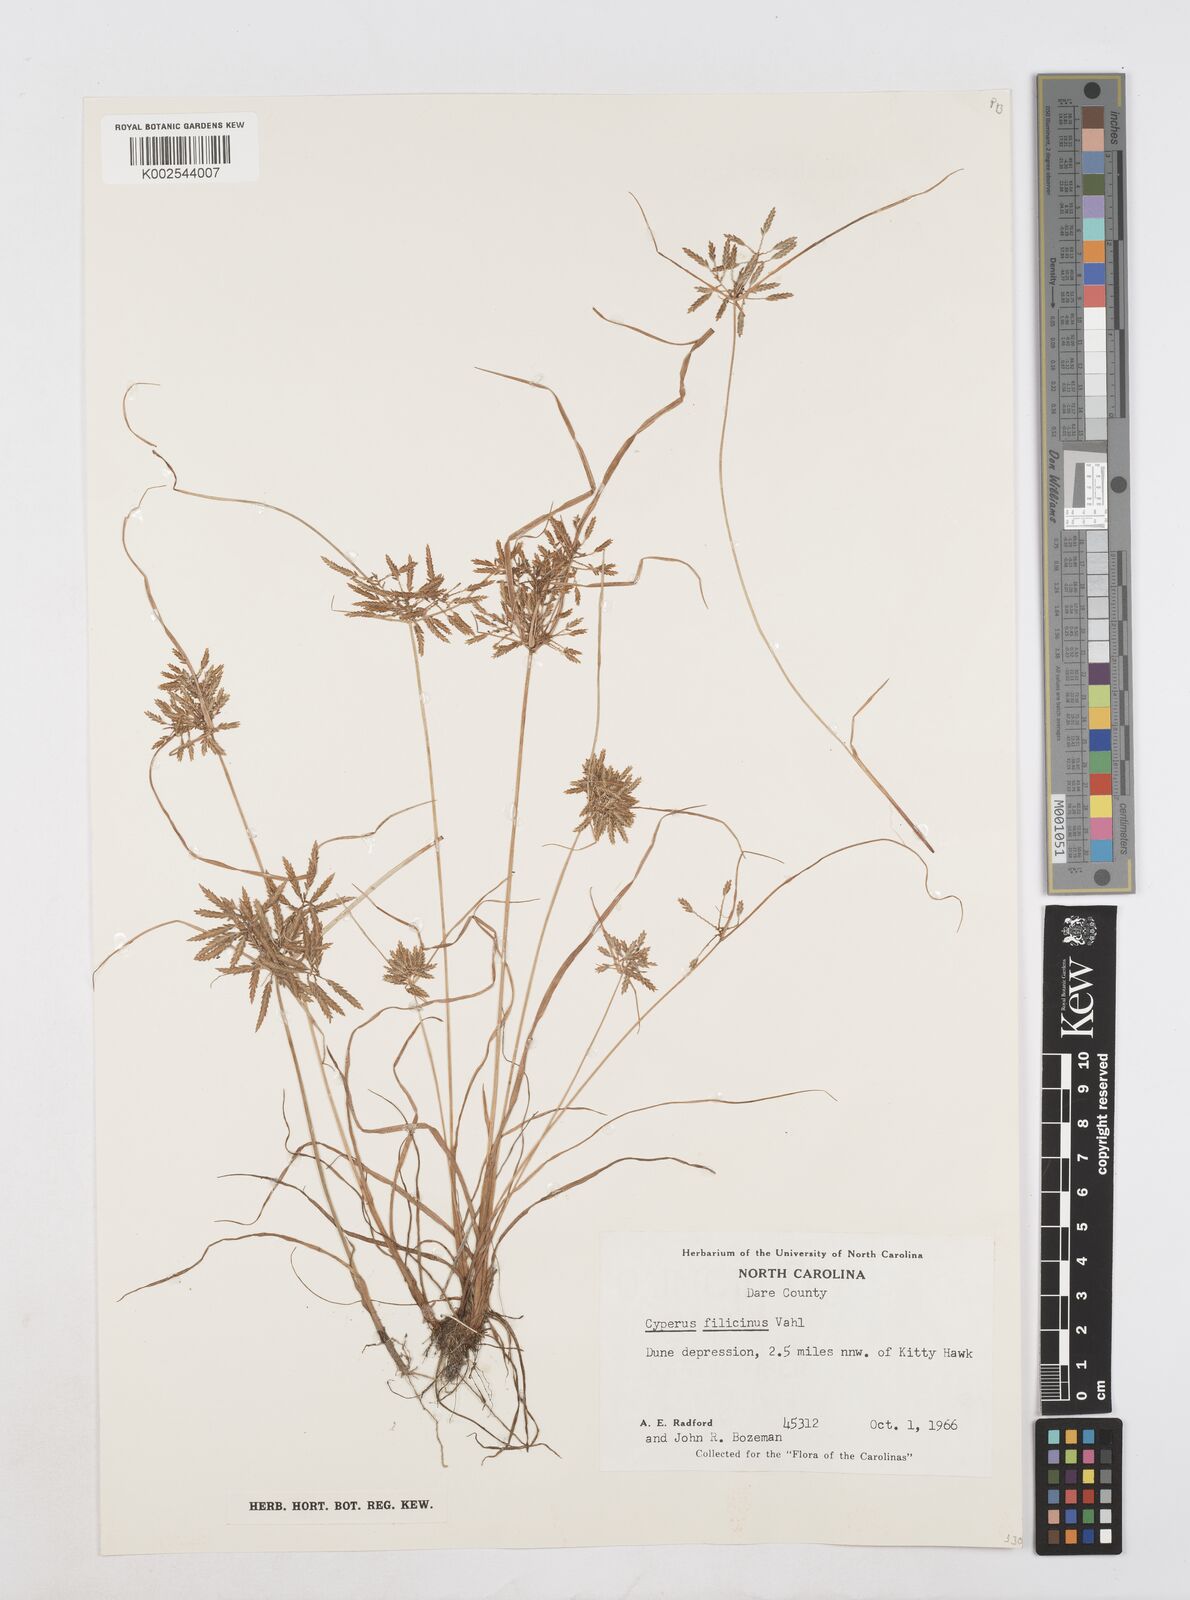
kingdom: Plantae
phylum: Tracheophyta
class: Liliopsida
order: Poales
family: Cyperaceae
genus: Cyperus
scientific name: Cyperus filicinus
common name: Fern flatsedge
